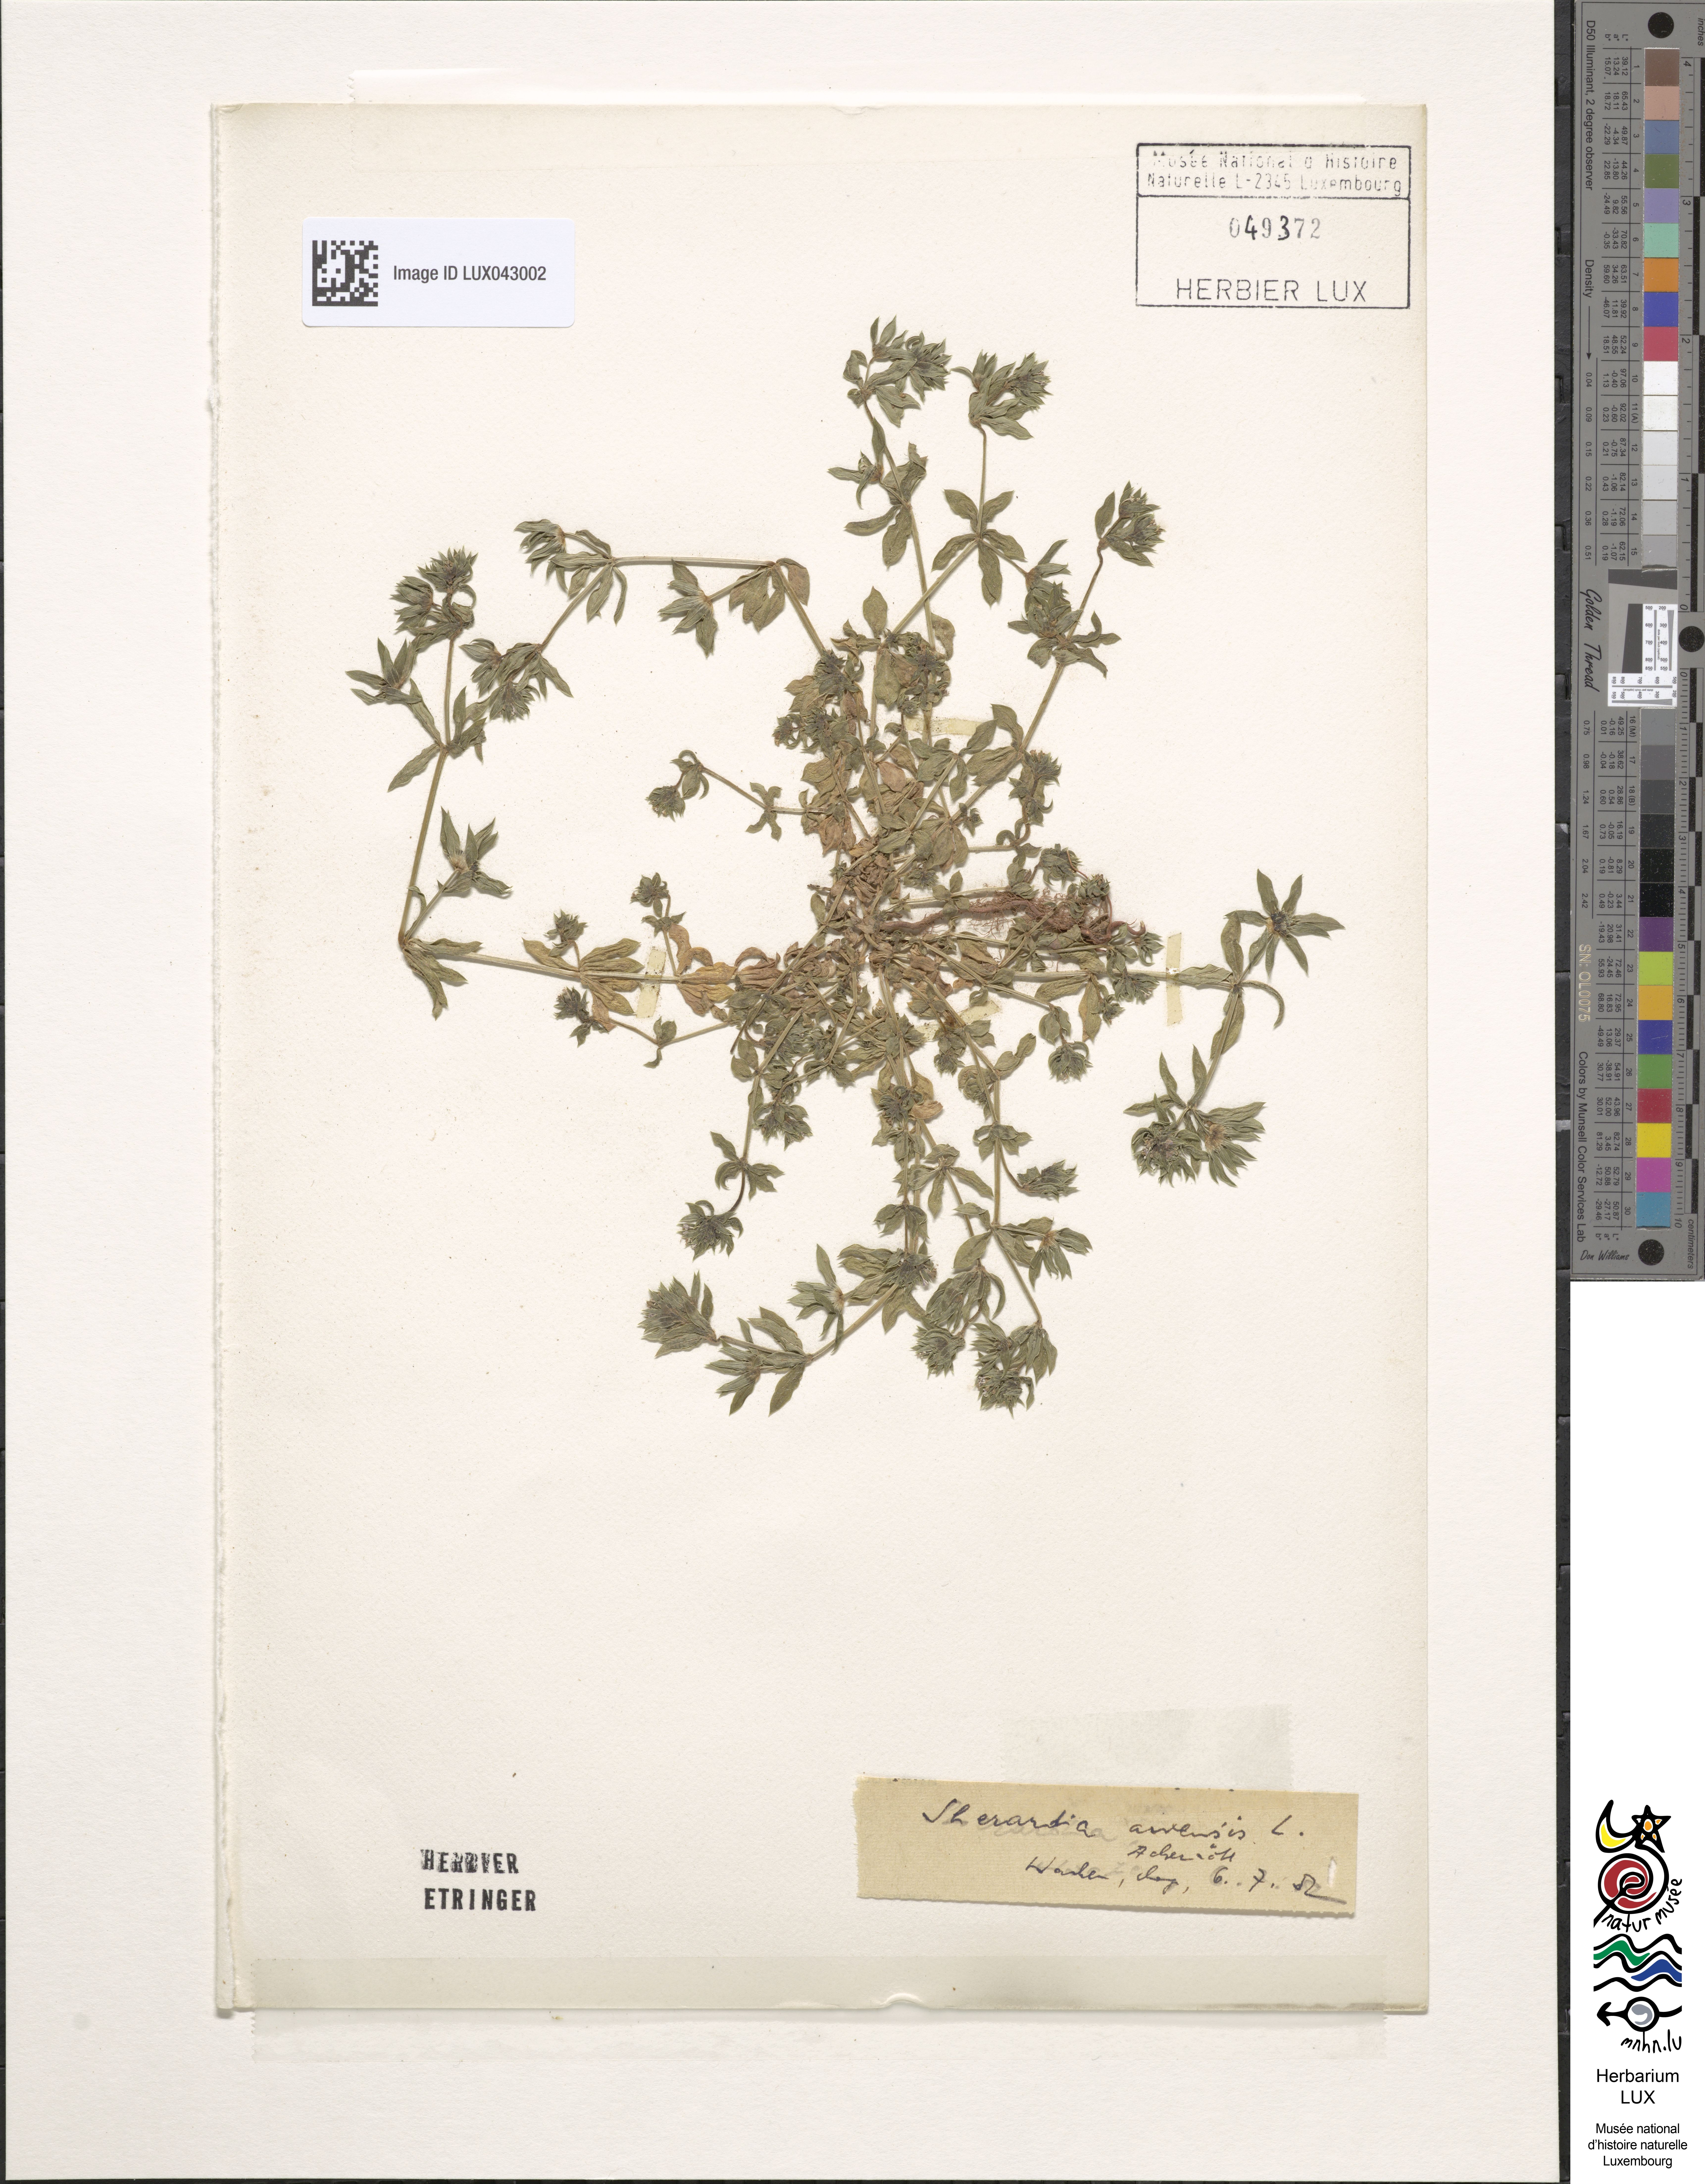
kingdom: Plantae
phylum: Tracheophyta
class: Magnoliopsida
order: Gentianales
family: Rubiaceae
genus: Sherardia
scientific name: Sherardia arvensis
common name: Field madder
